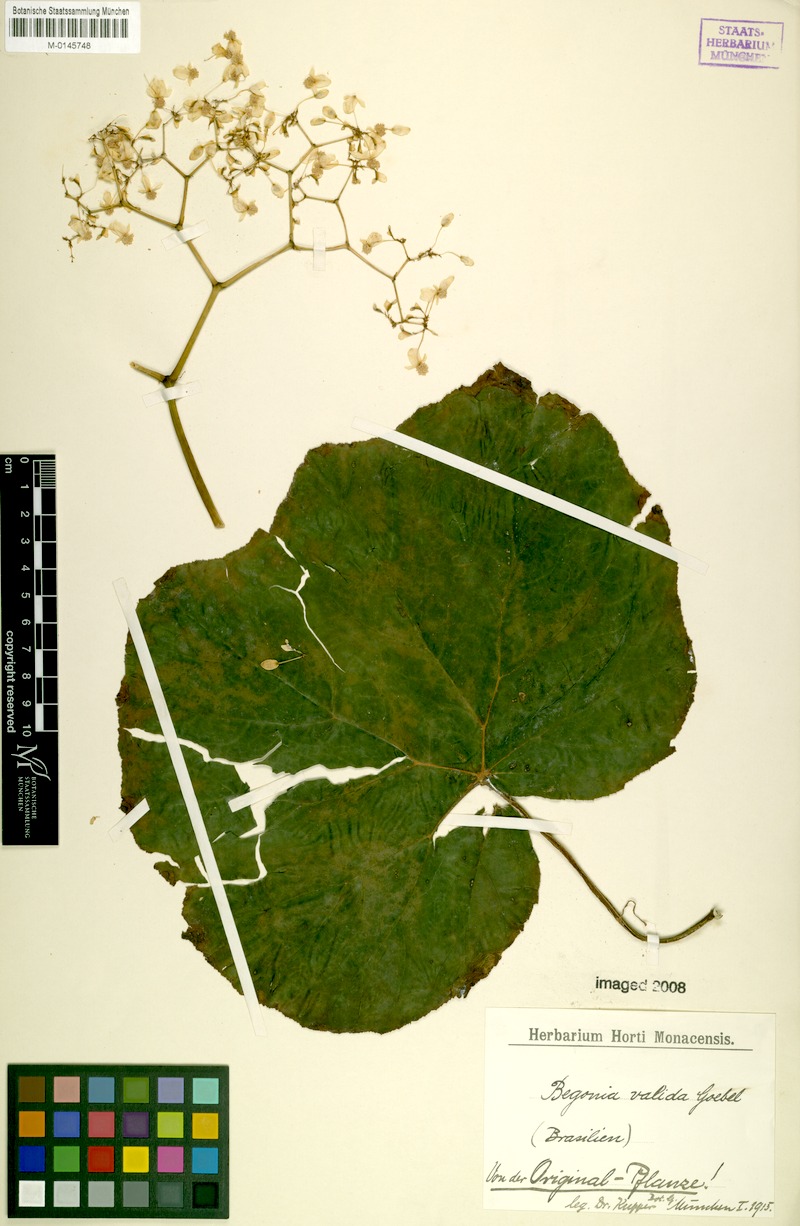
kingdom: Plantae
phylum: Tracheophyta
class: Magnoliopsida
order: Cucurbitales
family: Begoniaceae
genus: Begonia
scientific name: Begonia valida
